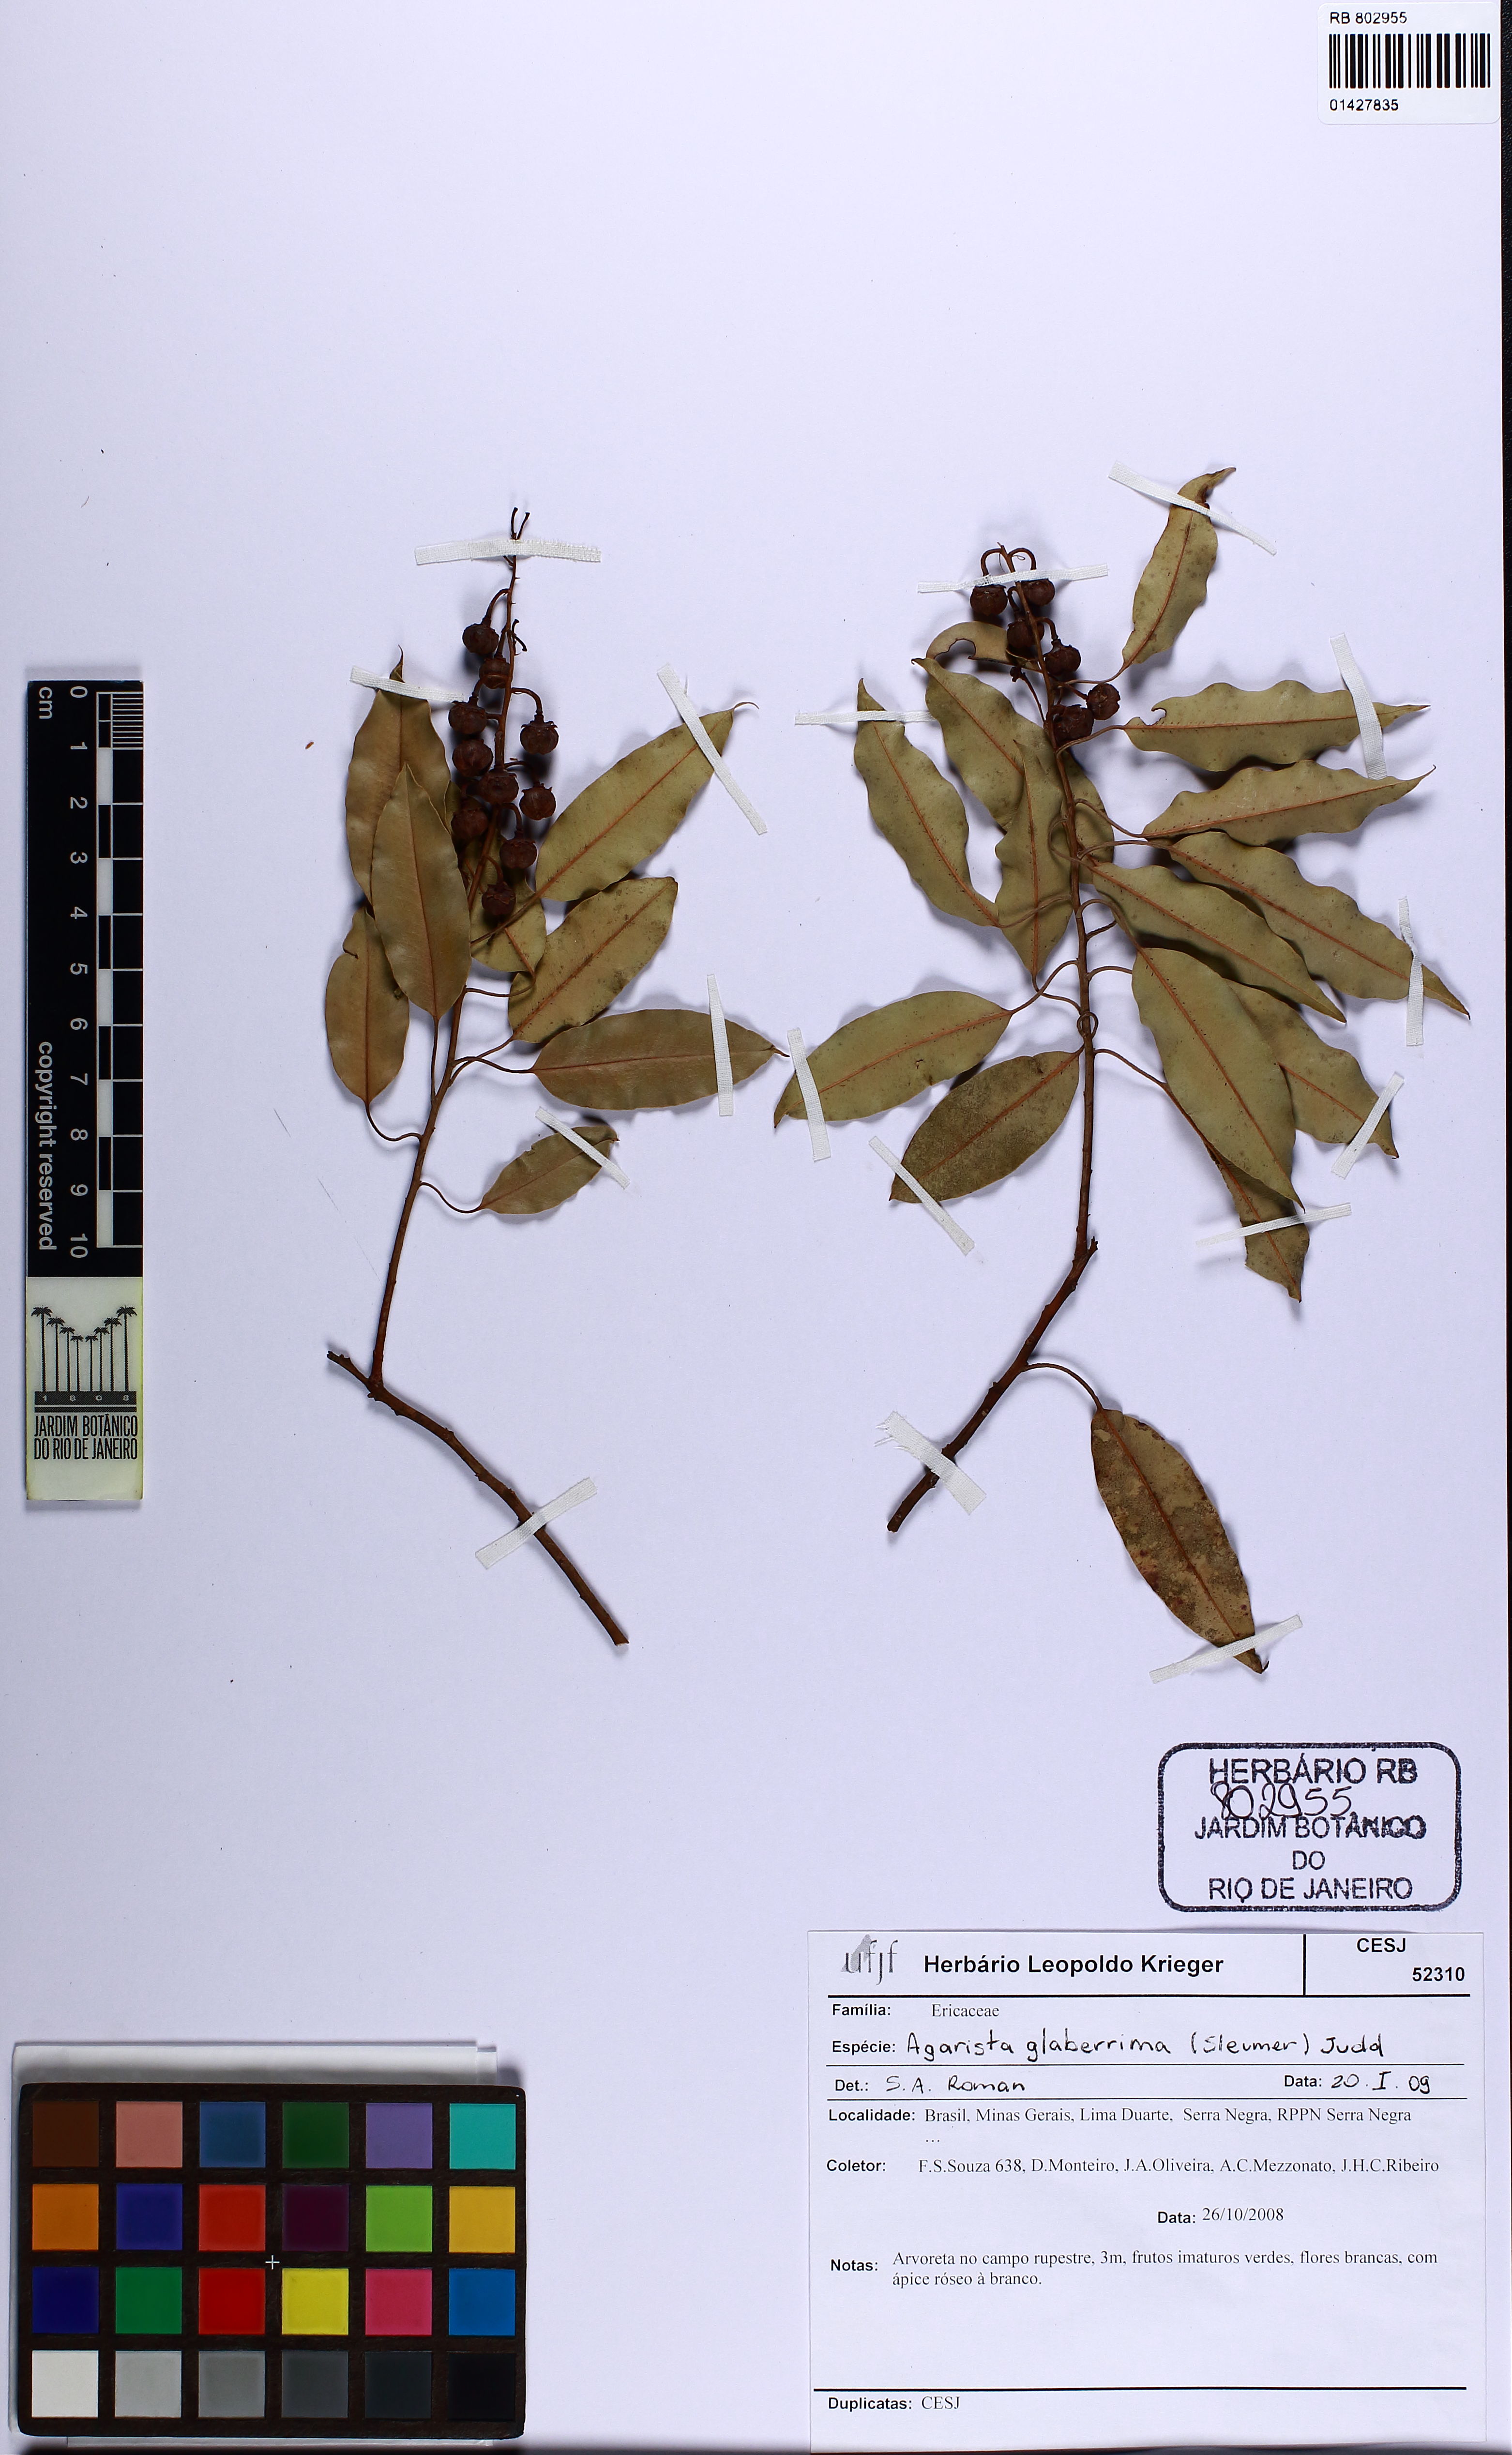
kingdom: Plantae
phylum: Tracheophyta
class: Magnoliopsida
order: Ericales
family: Ericaceae
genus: Agarista
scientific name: Agarista glaberrima
